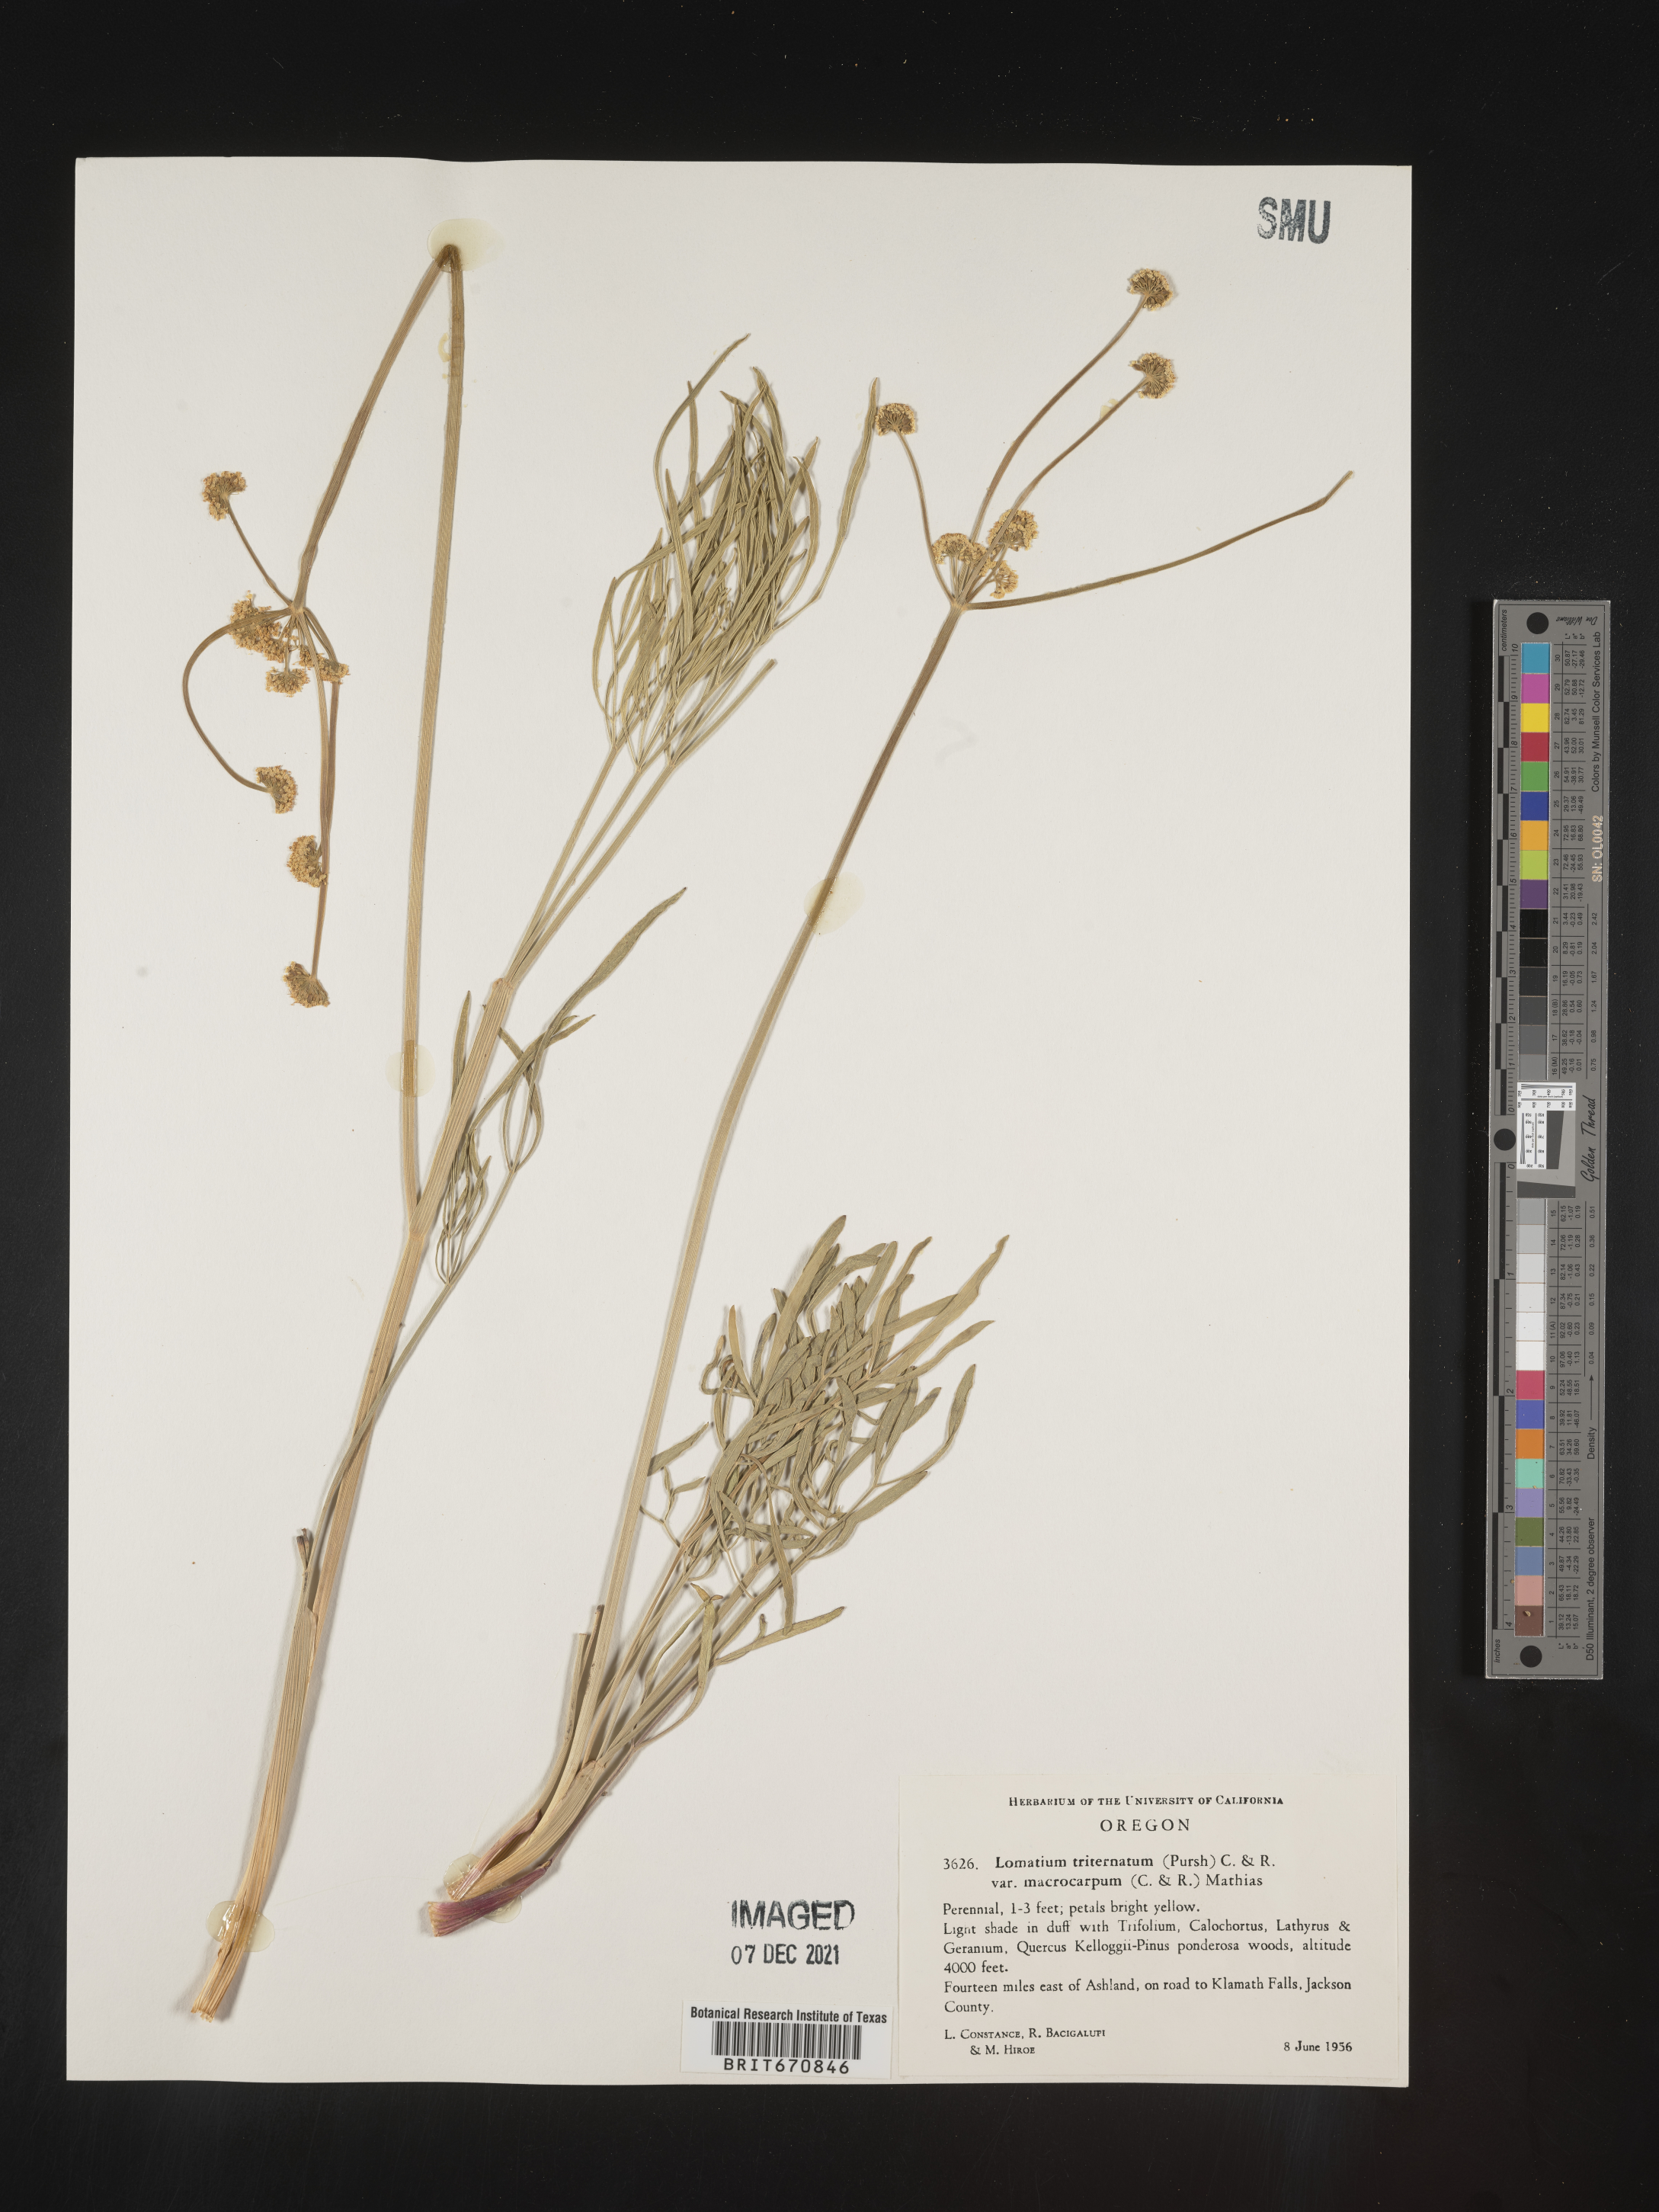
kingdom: Plantae
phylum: Tracheophyta
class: Magnoliopsida
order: Apiales
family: Apiaceae
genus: Lomatium
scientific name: Lomatium triternatum
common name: Ternate lomatium
